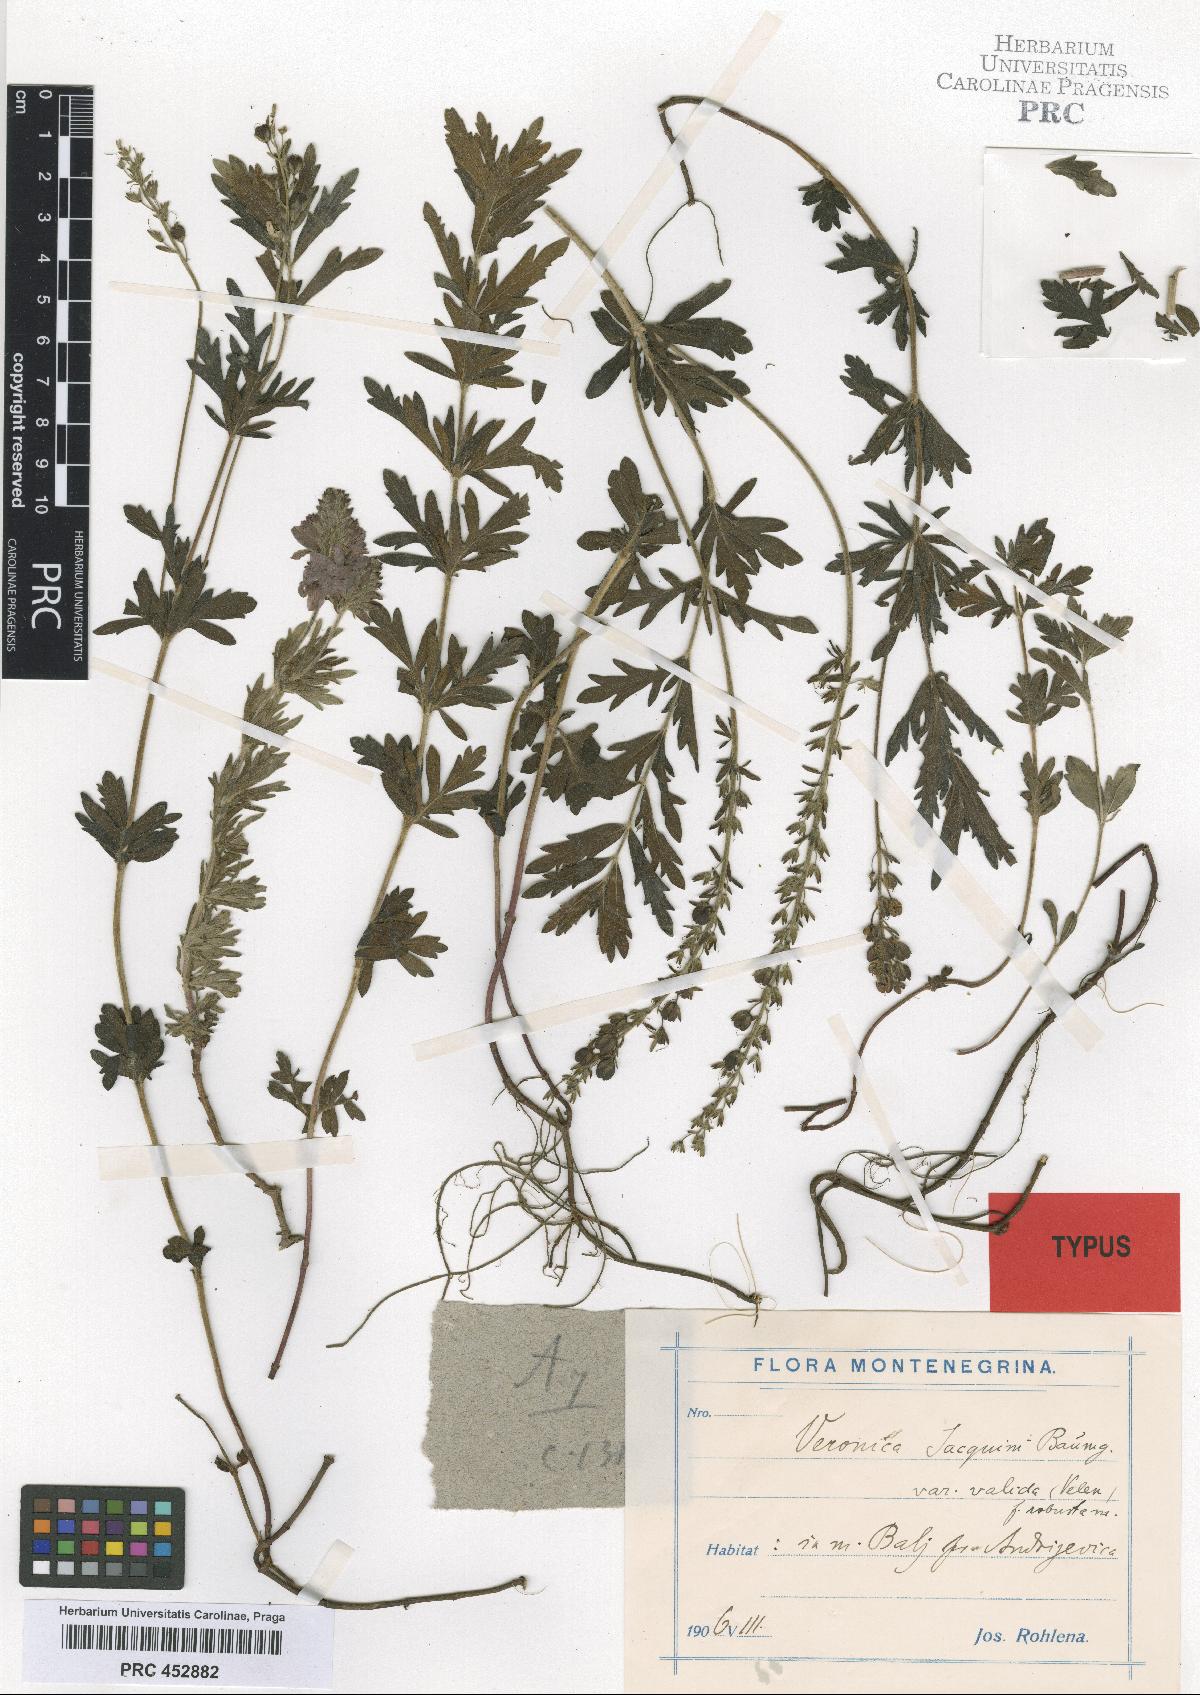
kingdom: Plantae
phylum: Tracheophyta
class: Magnoliopsida
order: Lamiales
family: Plantaginaceae
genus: Veronica
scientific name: Veronica austriaca
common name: Large speedwell
